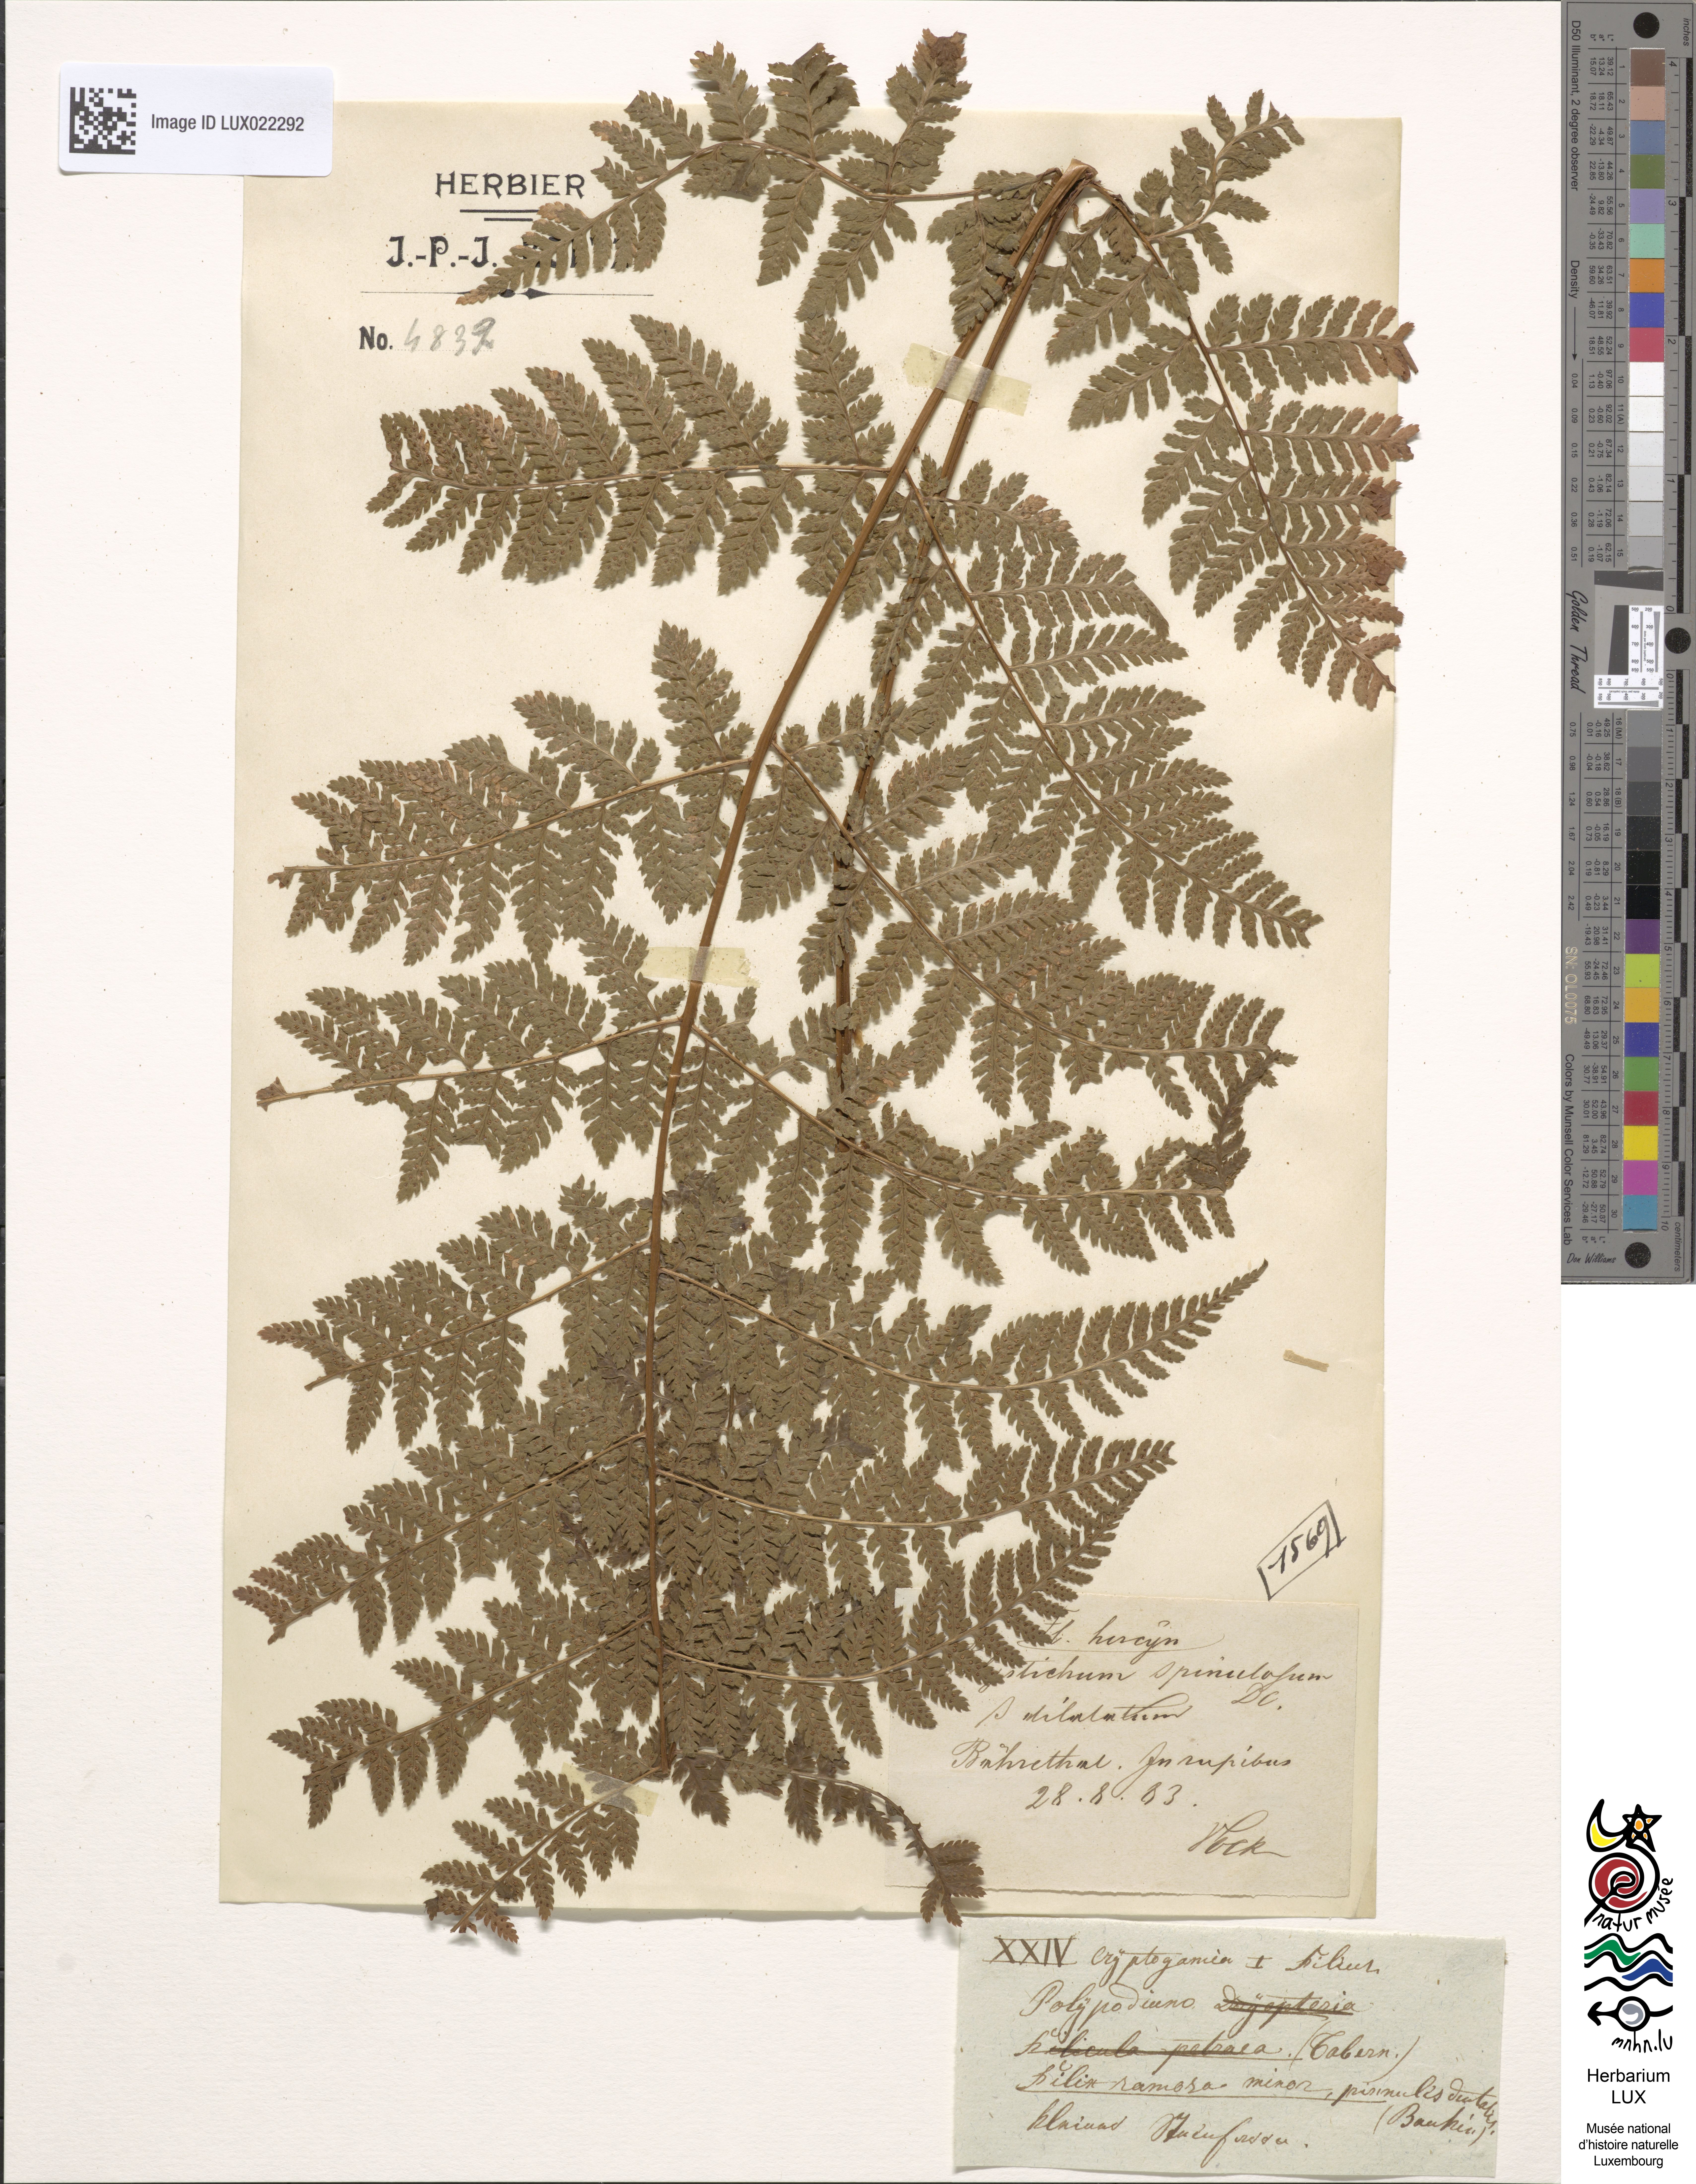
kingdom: Plantae
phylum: Tracheophyta
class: Polypodiopsida
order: Polypodiales
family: Dryopteridaceae
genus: Dryopteris
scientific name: Dryopteris carthusiana
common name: Narrow buckler-fern
